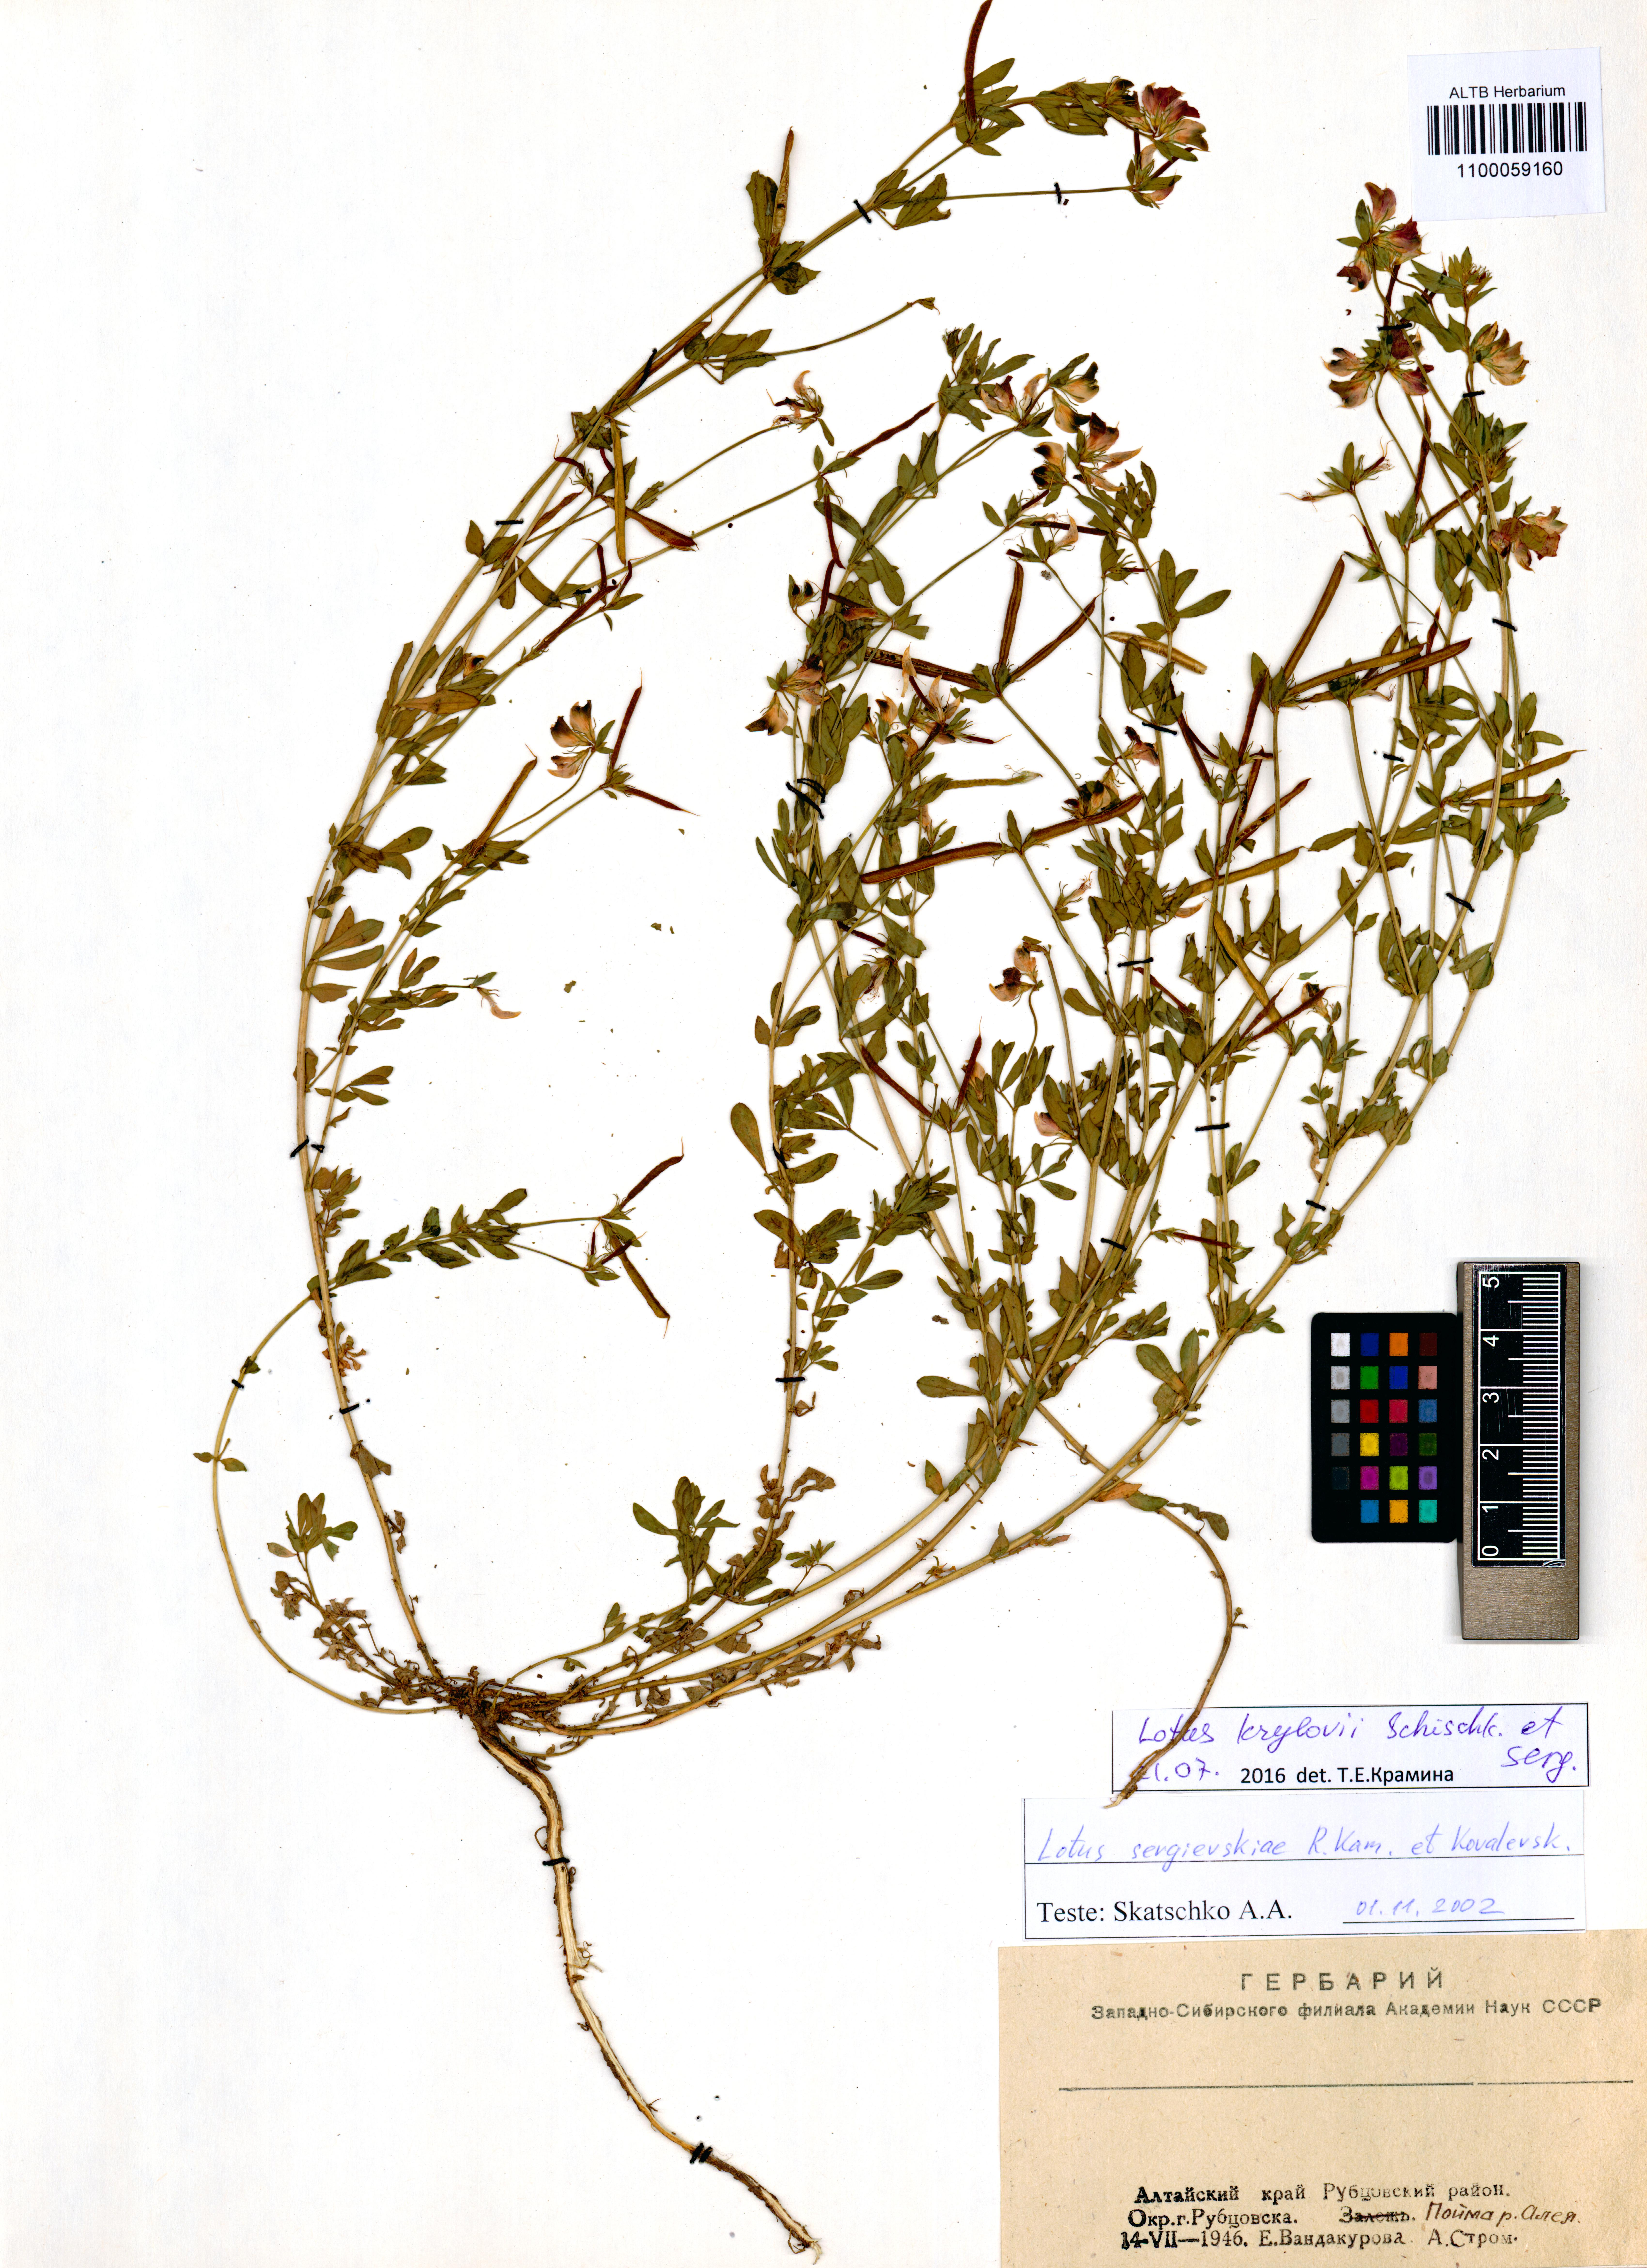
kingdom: Plantae
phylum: Tracheophyta
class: Magnoliopsida
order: Fabales
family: Fabaceae
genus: Lotus
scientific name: Lotus krylovii
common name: Krylov's bird's-foot trefoil
